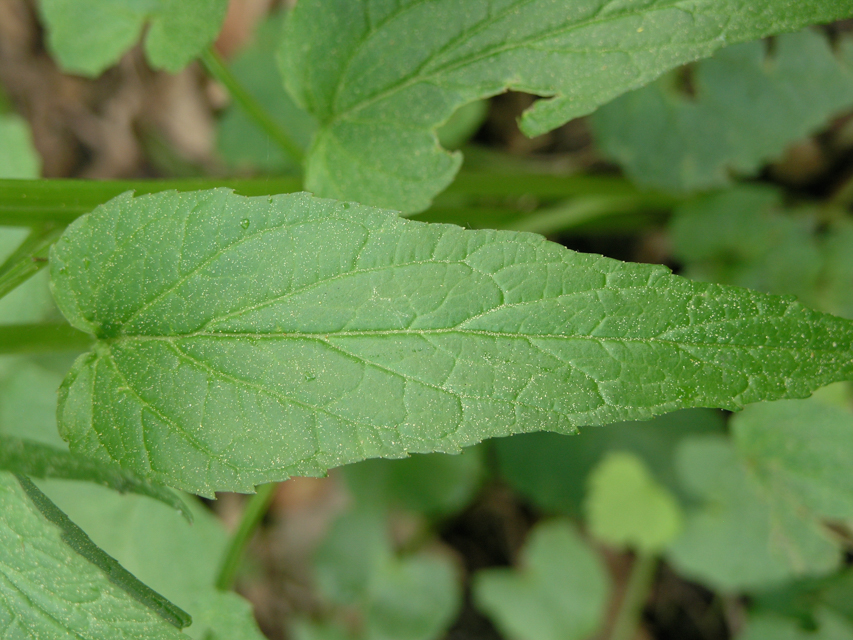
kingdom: Plantae
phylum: Tracheophyta
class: Magnoliopsida
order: Asterales
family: Campanulaceae
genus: Phyteuma
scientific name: Phyteuma spicatum
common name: Spiked rampion
